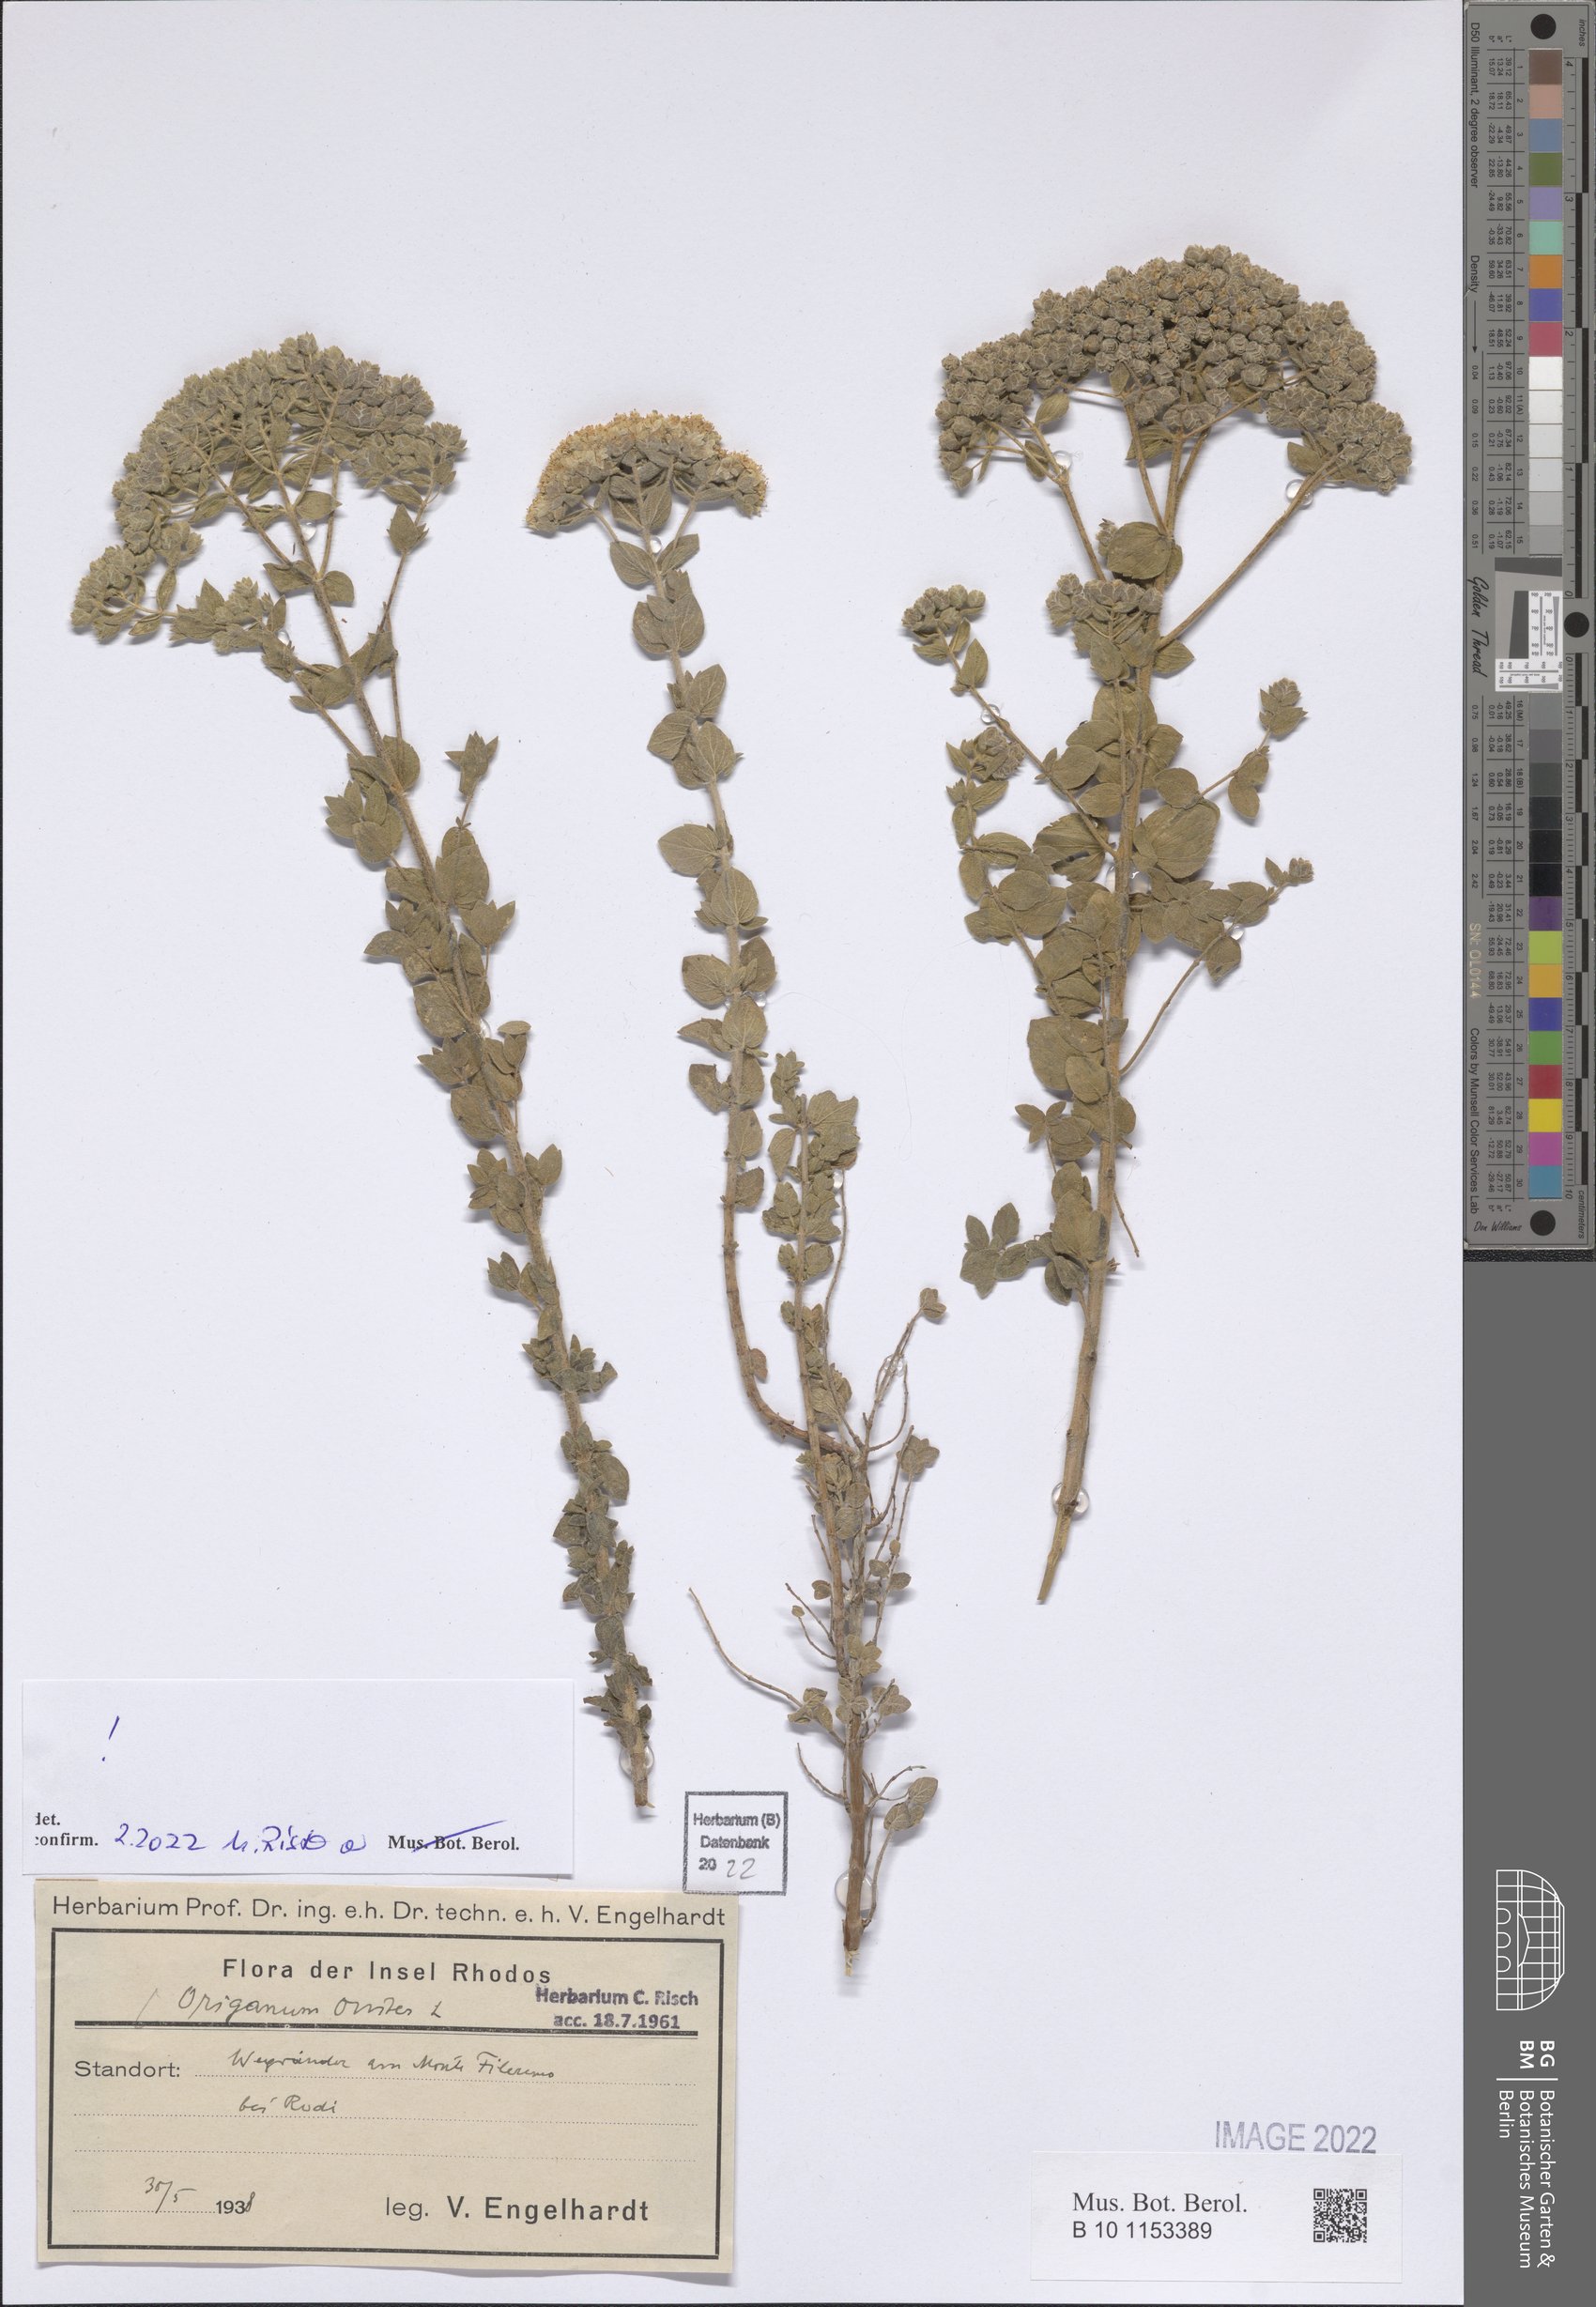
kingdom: Plantae
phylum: Tracheophyta
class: Magnoliopsida
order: Lamiales
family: Lamiaceae
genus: Origanum
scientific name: Origanum onites
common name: Turkish oregano
